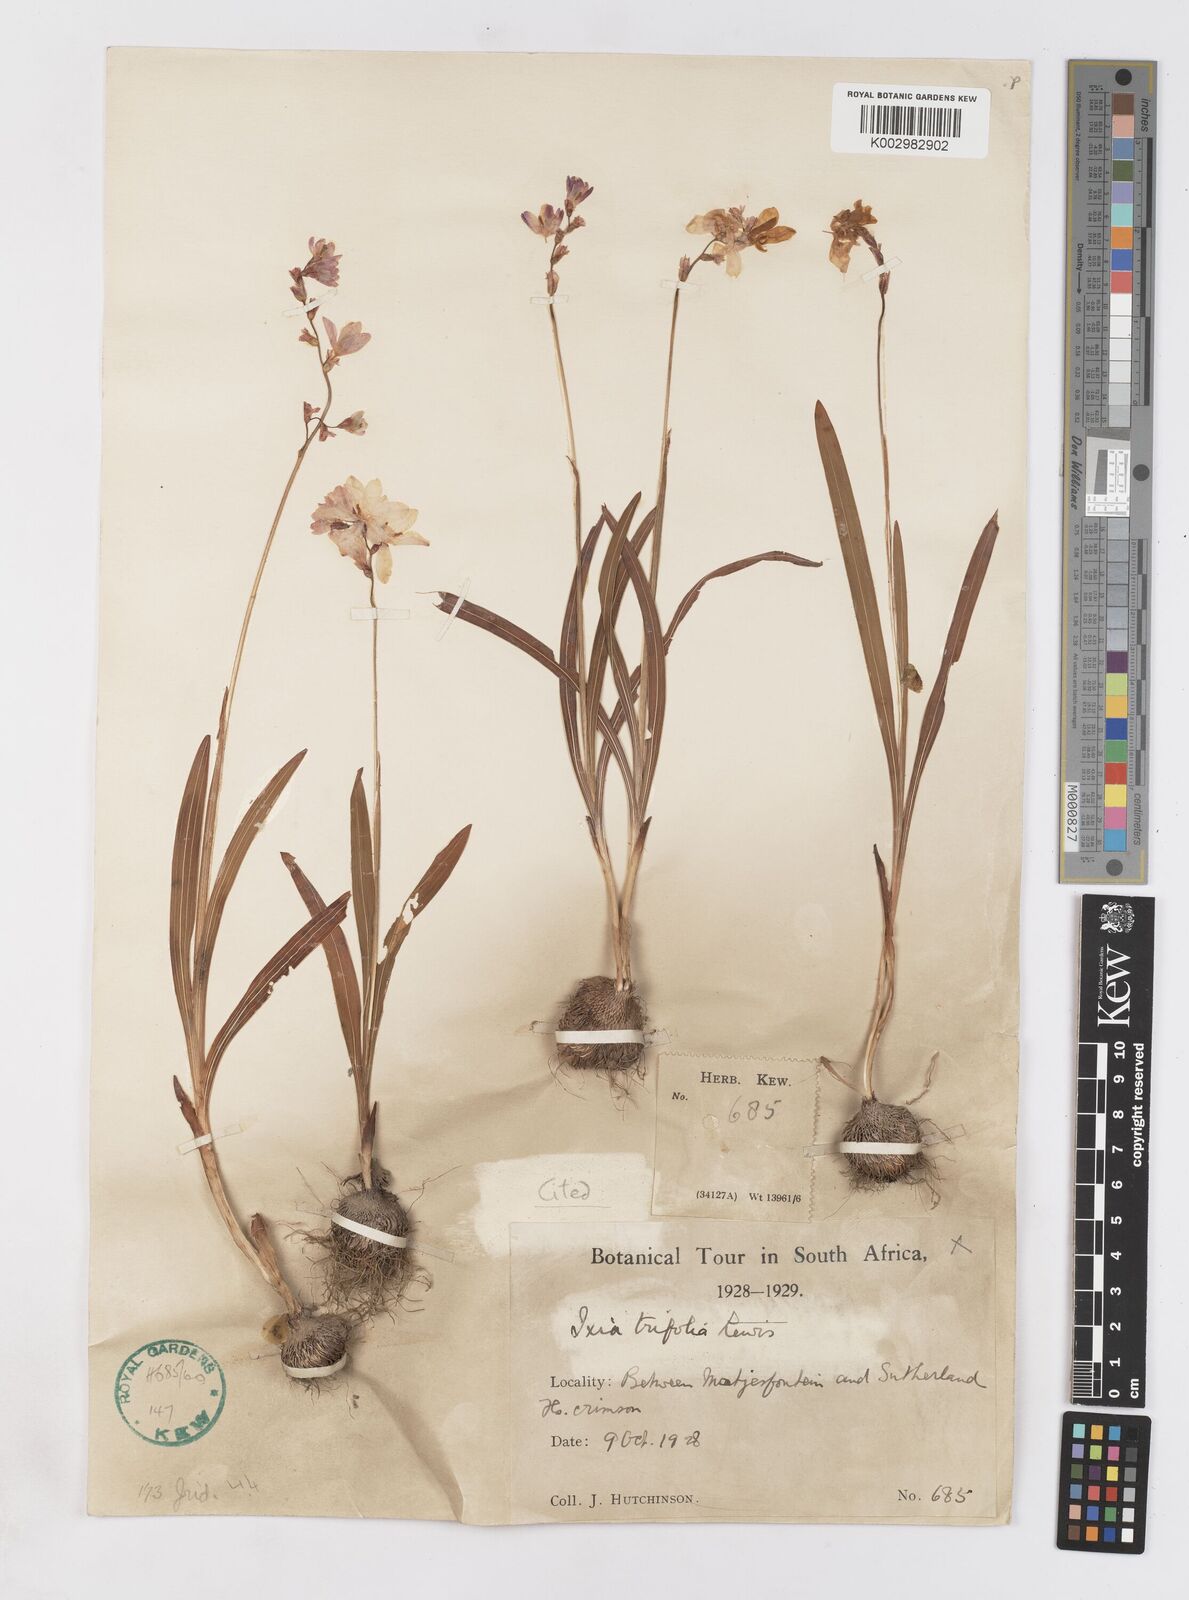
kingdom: Plantae
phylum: Tracheophyta
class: Liliopsida
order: Asparagales
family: Iridaceae
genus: Ixia
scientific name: Ixia trifolia
